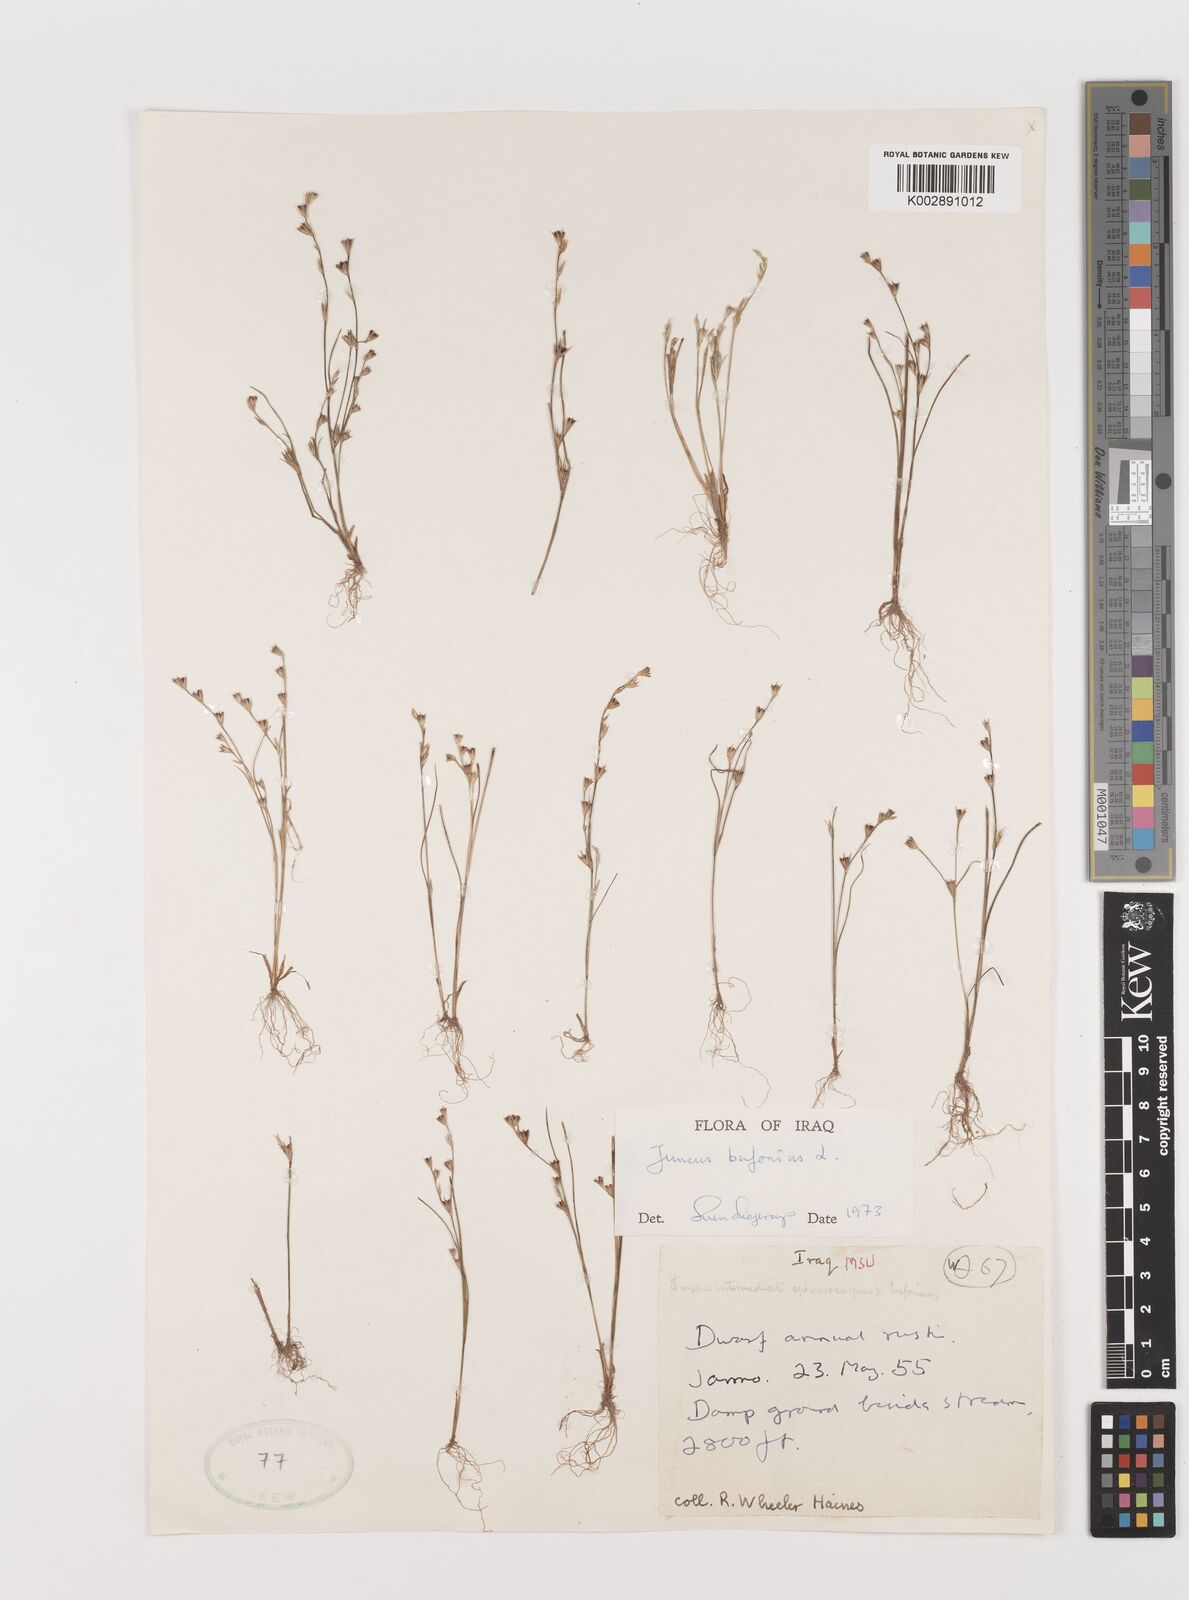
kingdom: Plantae
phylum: Tracheophyta
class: Liliopsida
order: Poales
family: Juncaceae
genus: Juncus
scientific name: Juncus bufonius
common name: Toad rush
